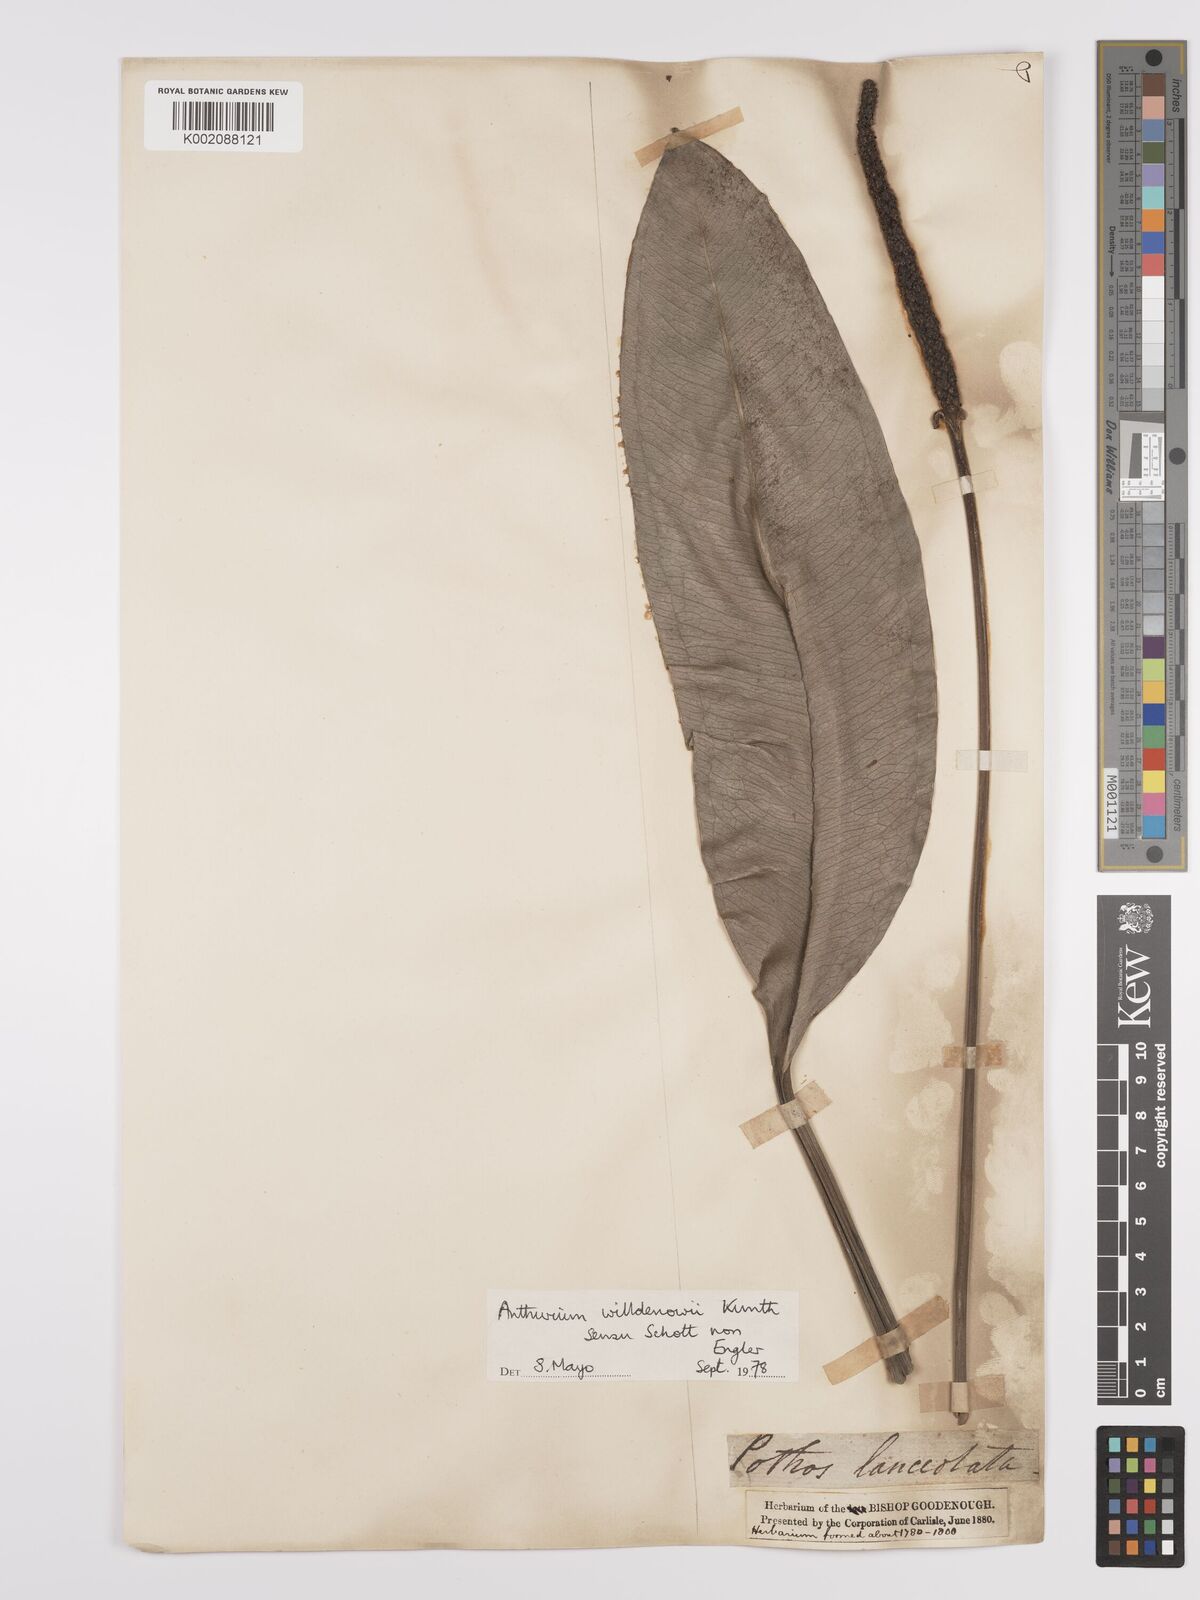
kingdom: Plantae
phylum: Tracheophyta
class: Liliopsida
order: Alismatales
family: Araceae
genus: Anthurium
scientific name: Anthurium willdenowii
